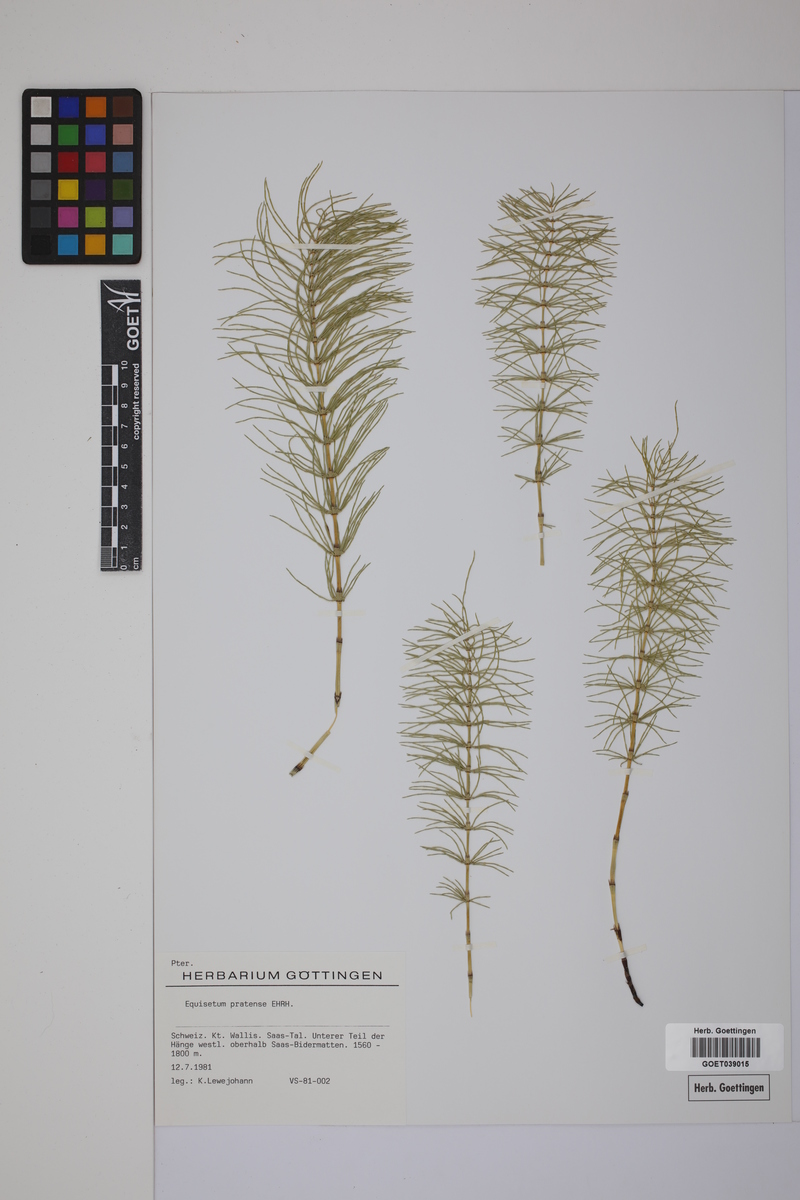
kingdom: Plantae
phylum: Tracheophyta
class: Polypodiopsida
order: Equisetales
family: Equisetaceae
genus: Equisetum
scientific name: Equisetum pratense
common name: Meadow horsetail
